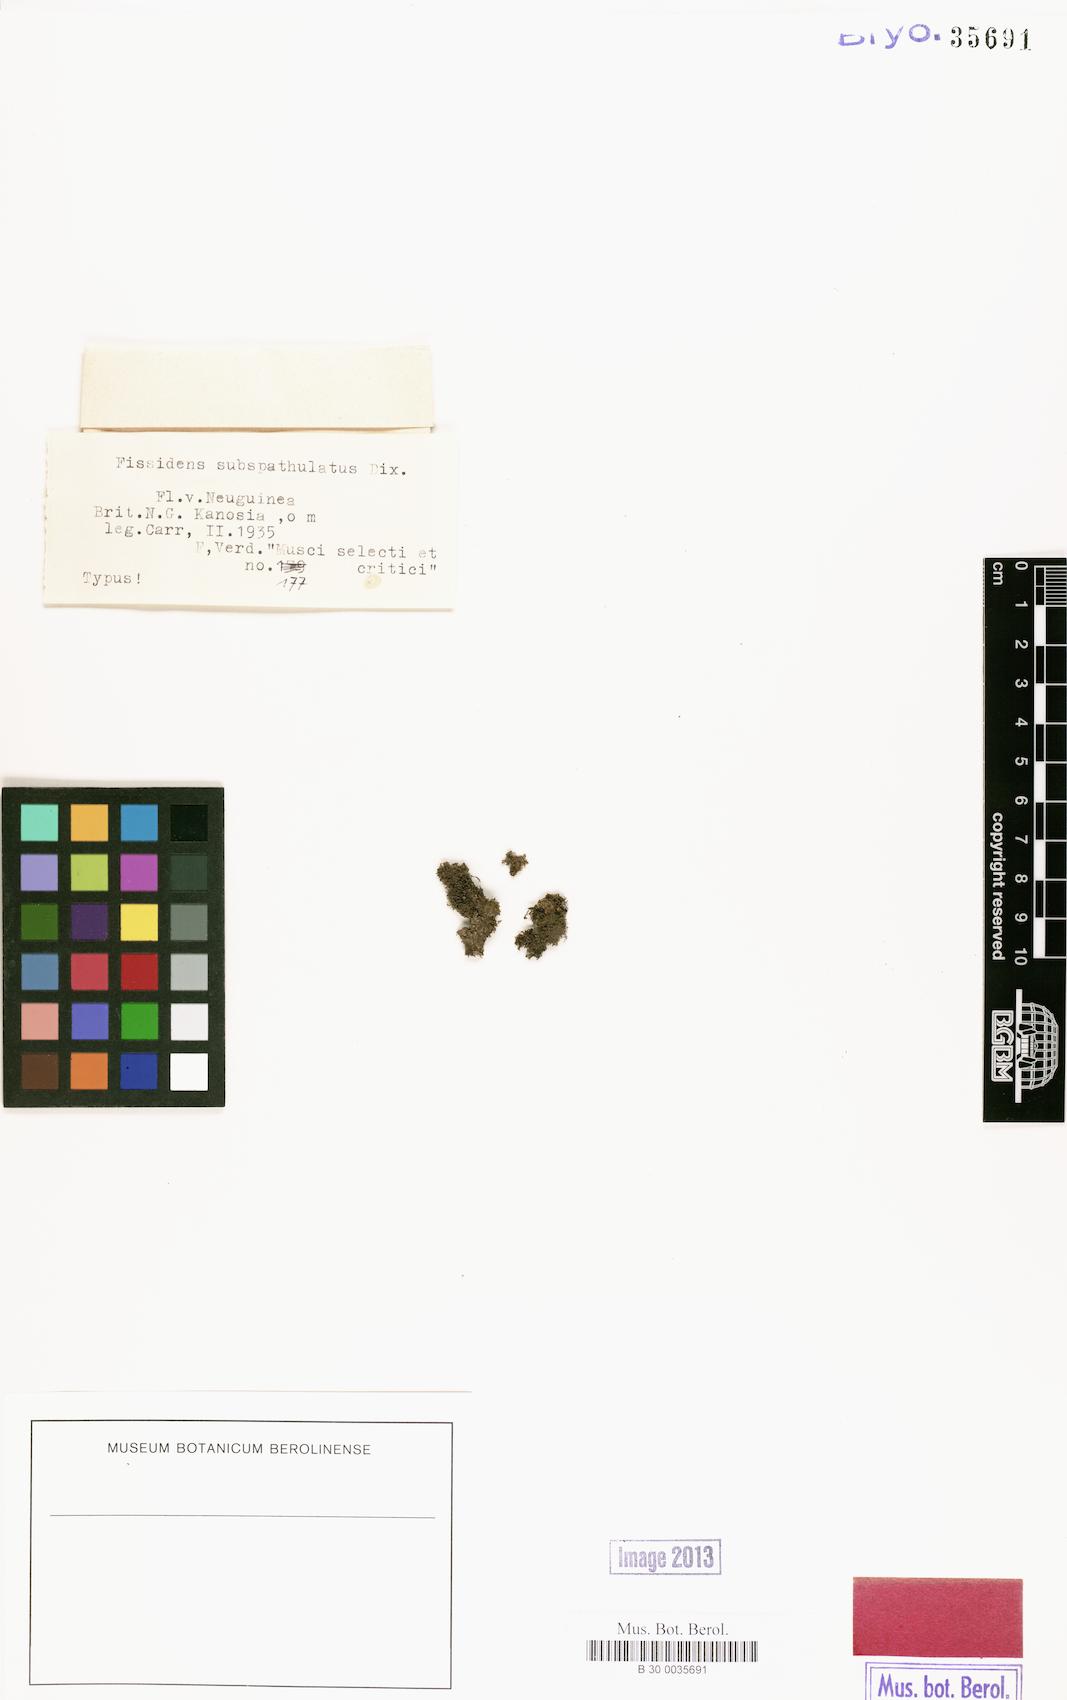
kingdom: Plantae
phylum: Bryophyta
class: Bryopsida
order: Dicranales
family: Fissidentaceae
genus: Fissidens
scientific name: Fissidens gardneri
